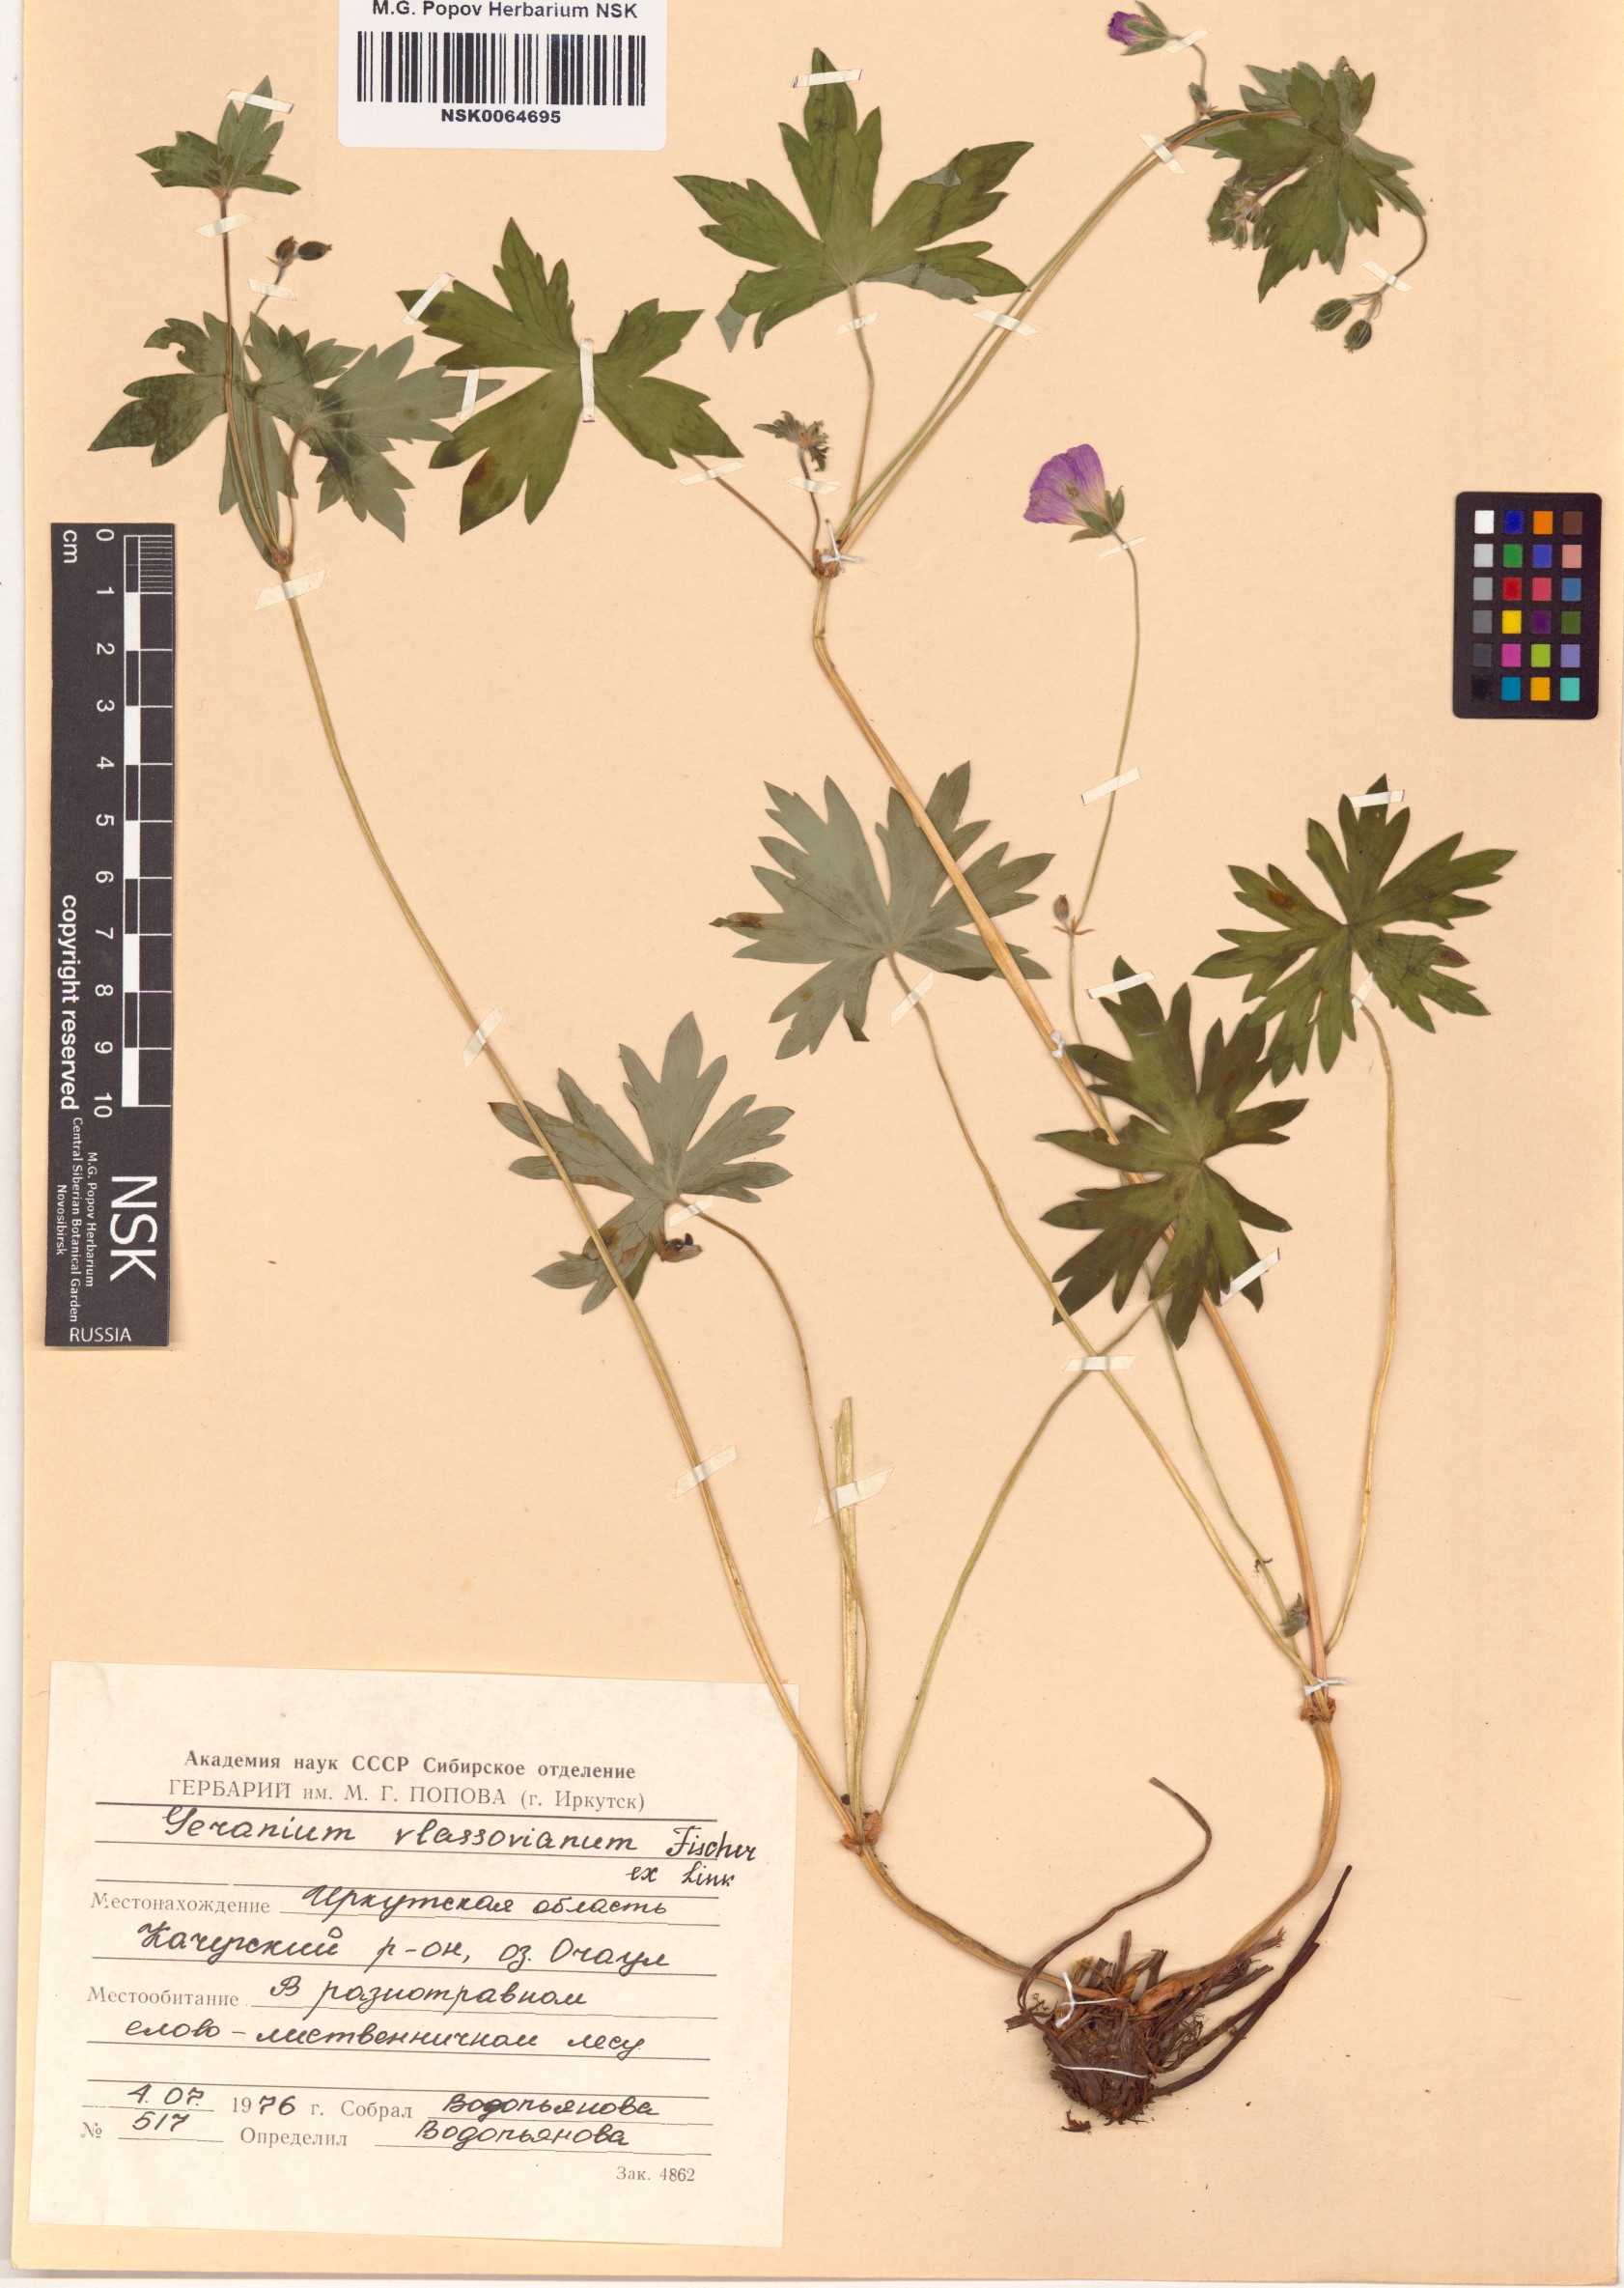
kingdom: Plantae
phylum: Tracheophyta
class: Magnoliopsida
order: Geraniales
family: Geraniaceae
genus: Geranium
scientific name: Geranium wlassovianum
